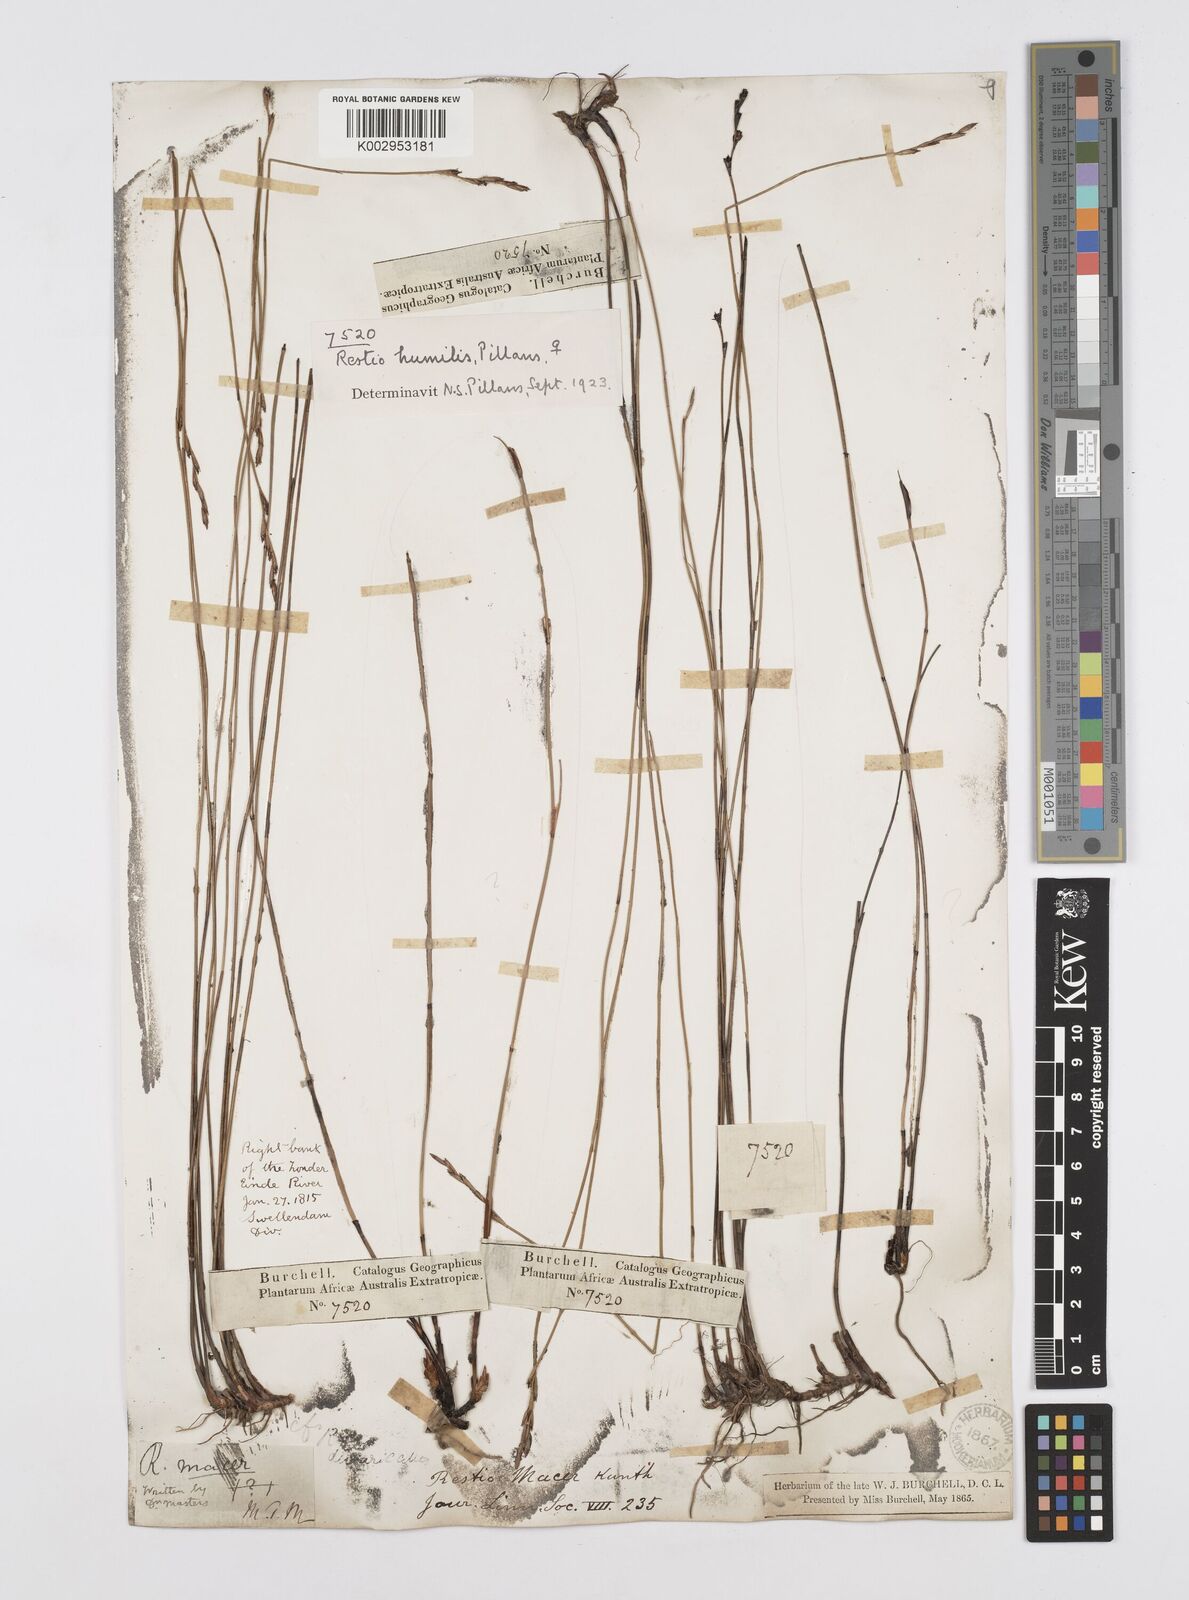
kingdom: Plantae
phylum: Tracheophyta
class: Liliopsida
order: Poales
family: Restionaceae
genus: Restio
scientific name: Restio wallichii
